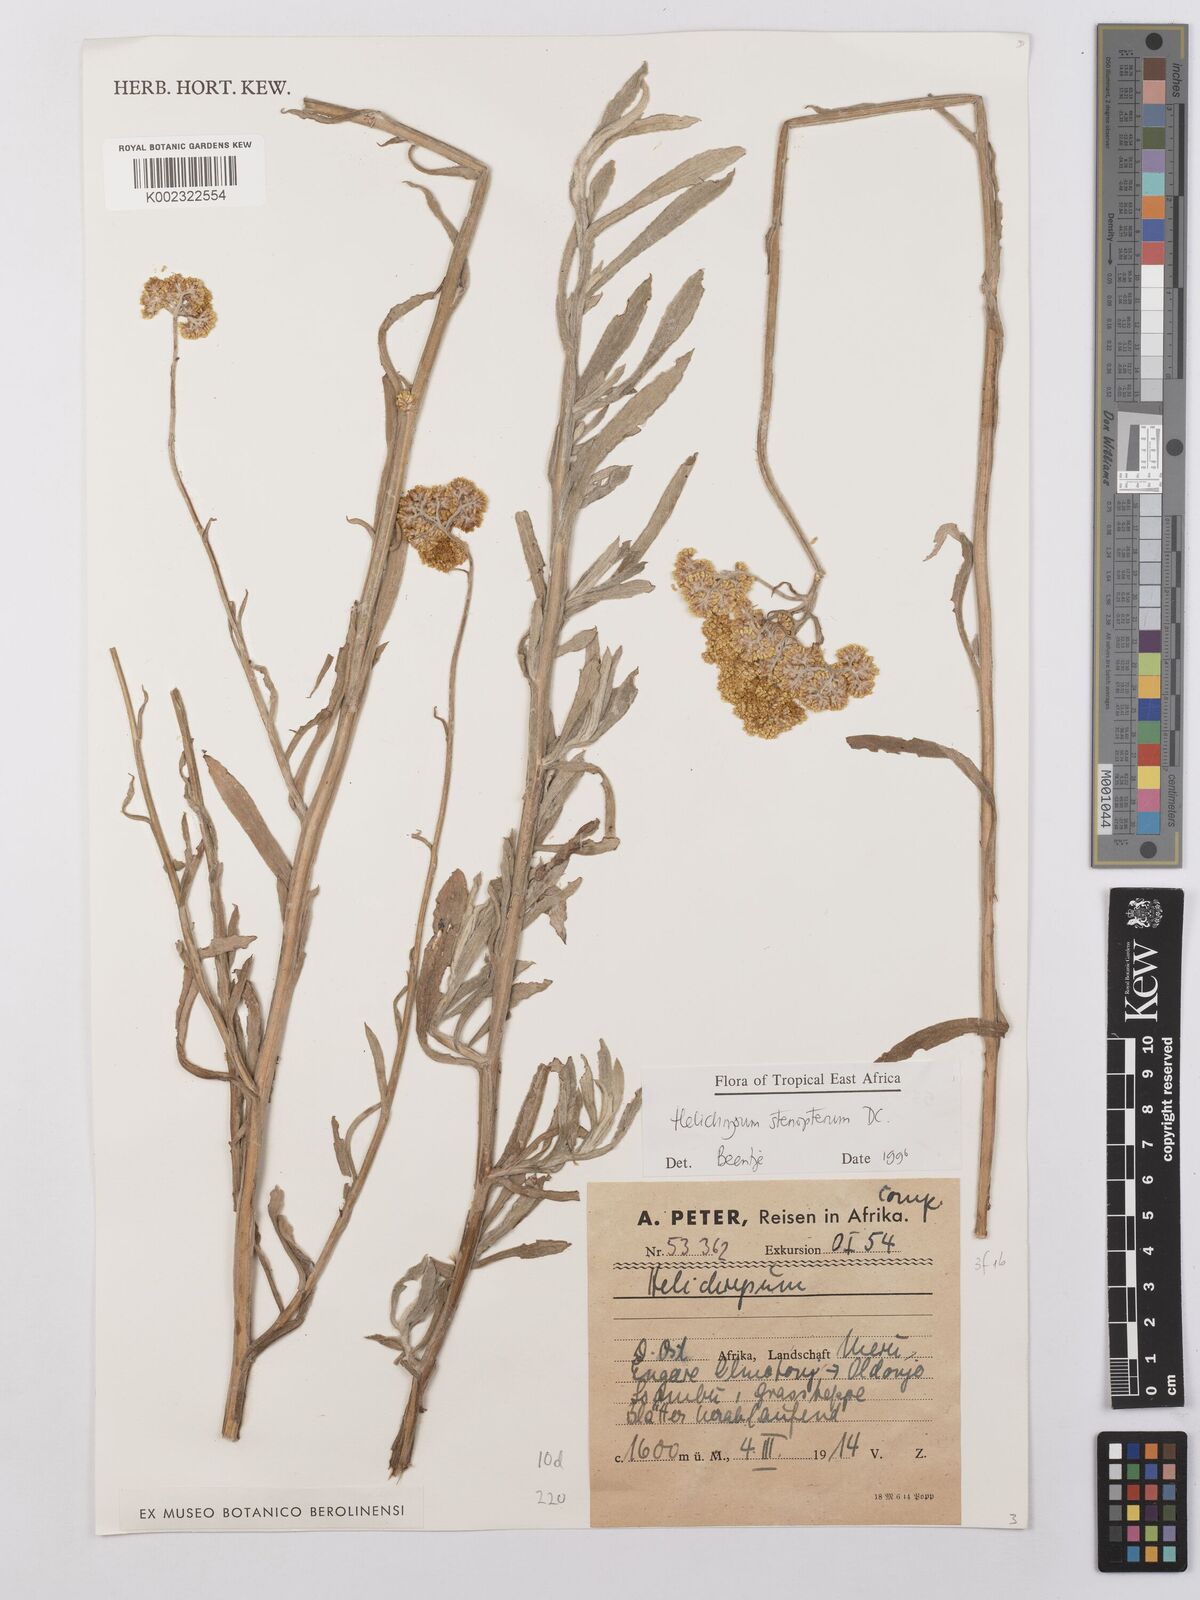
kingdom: Plantae
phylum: Tracheophyta
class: Magnoliopsida
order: Asterales
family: Asteraceae
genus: Helichrysum
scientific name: Helichrysum stenopterum
